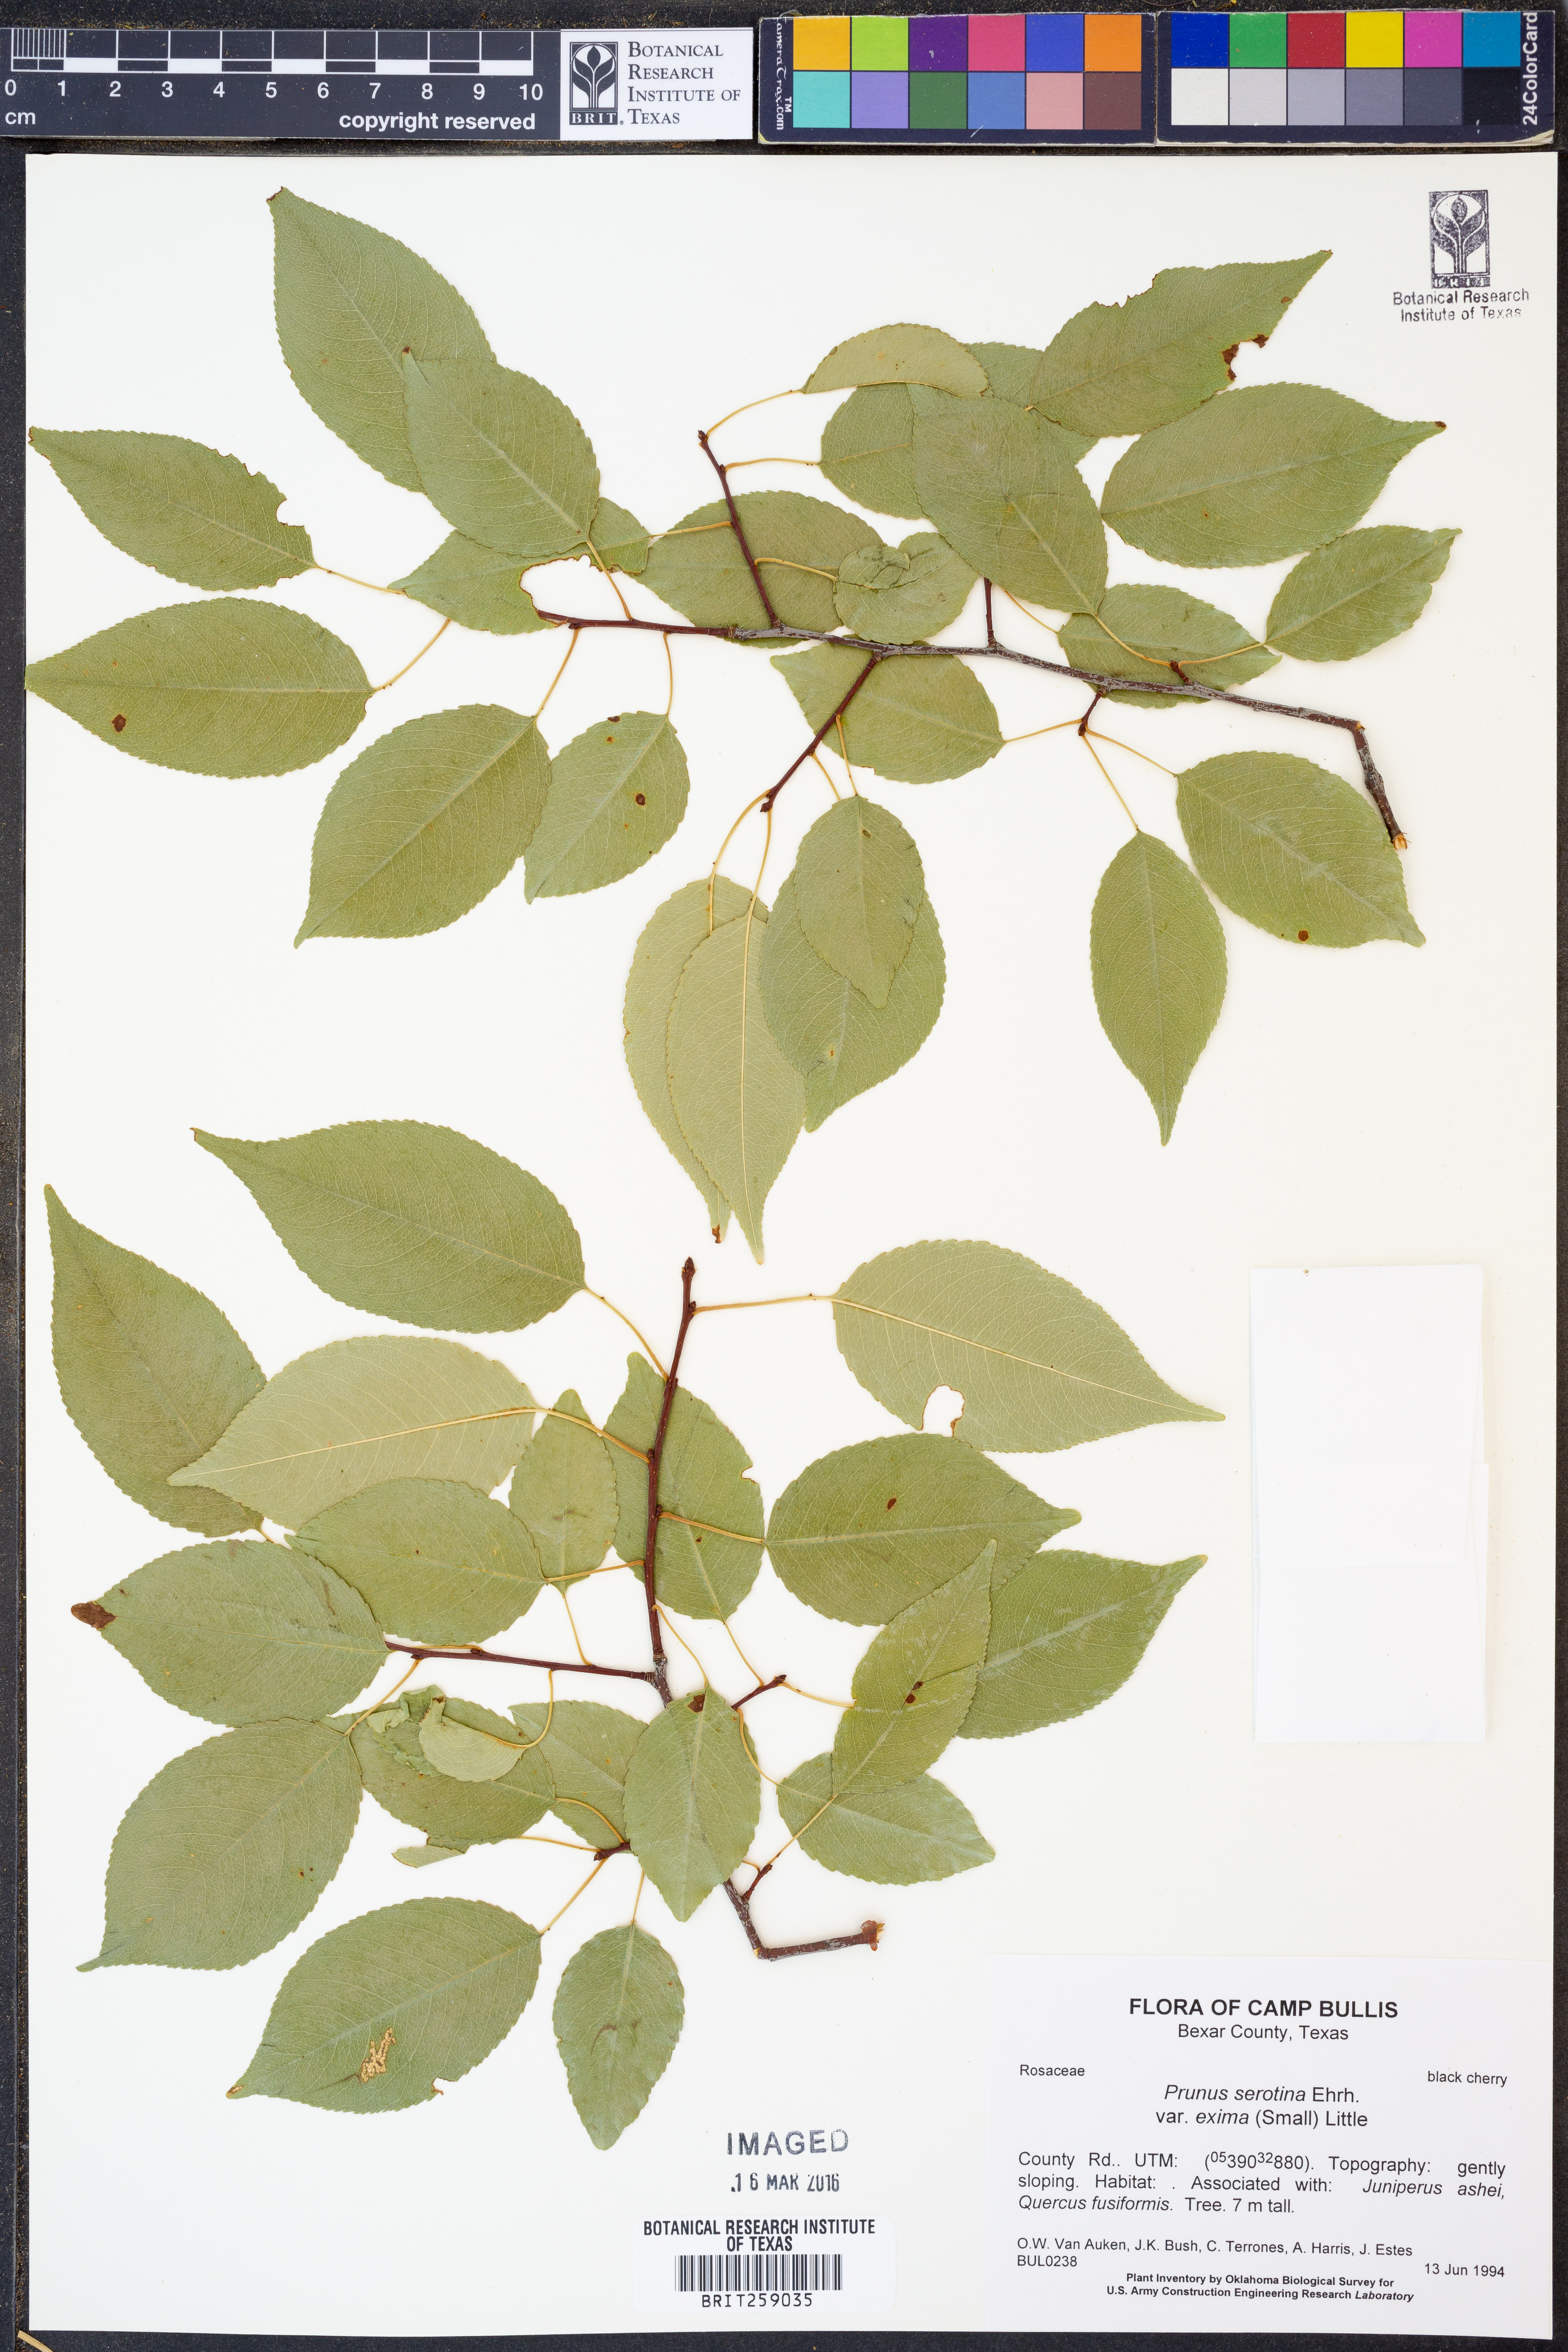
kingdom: Plantae
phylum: Tracheophyta
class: Magnoliopsida
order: Rosales
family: Rosaceae
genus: Prunus
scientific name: Prunus serotina
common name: Black cherry
